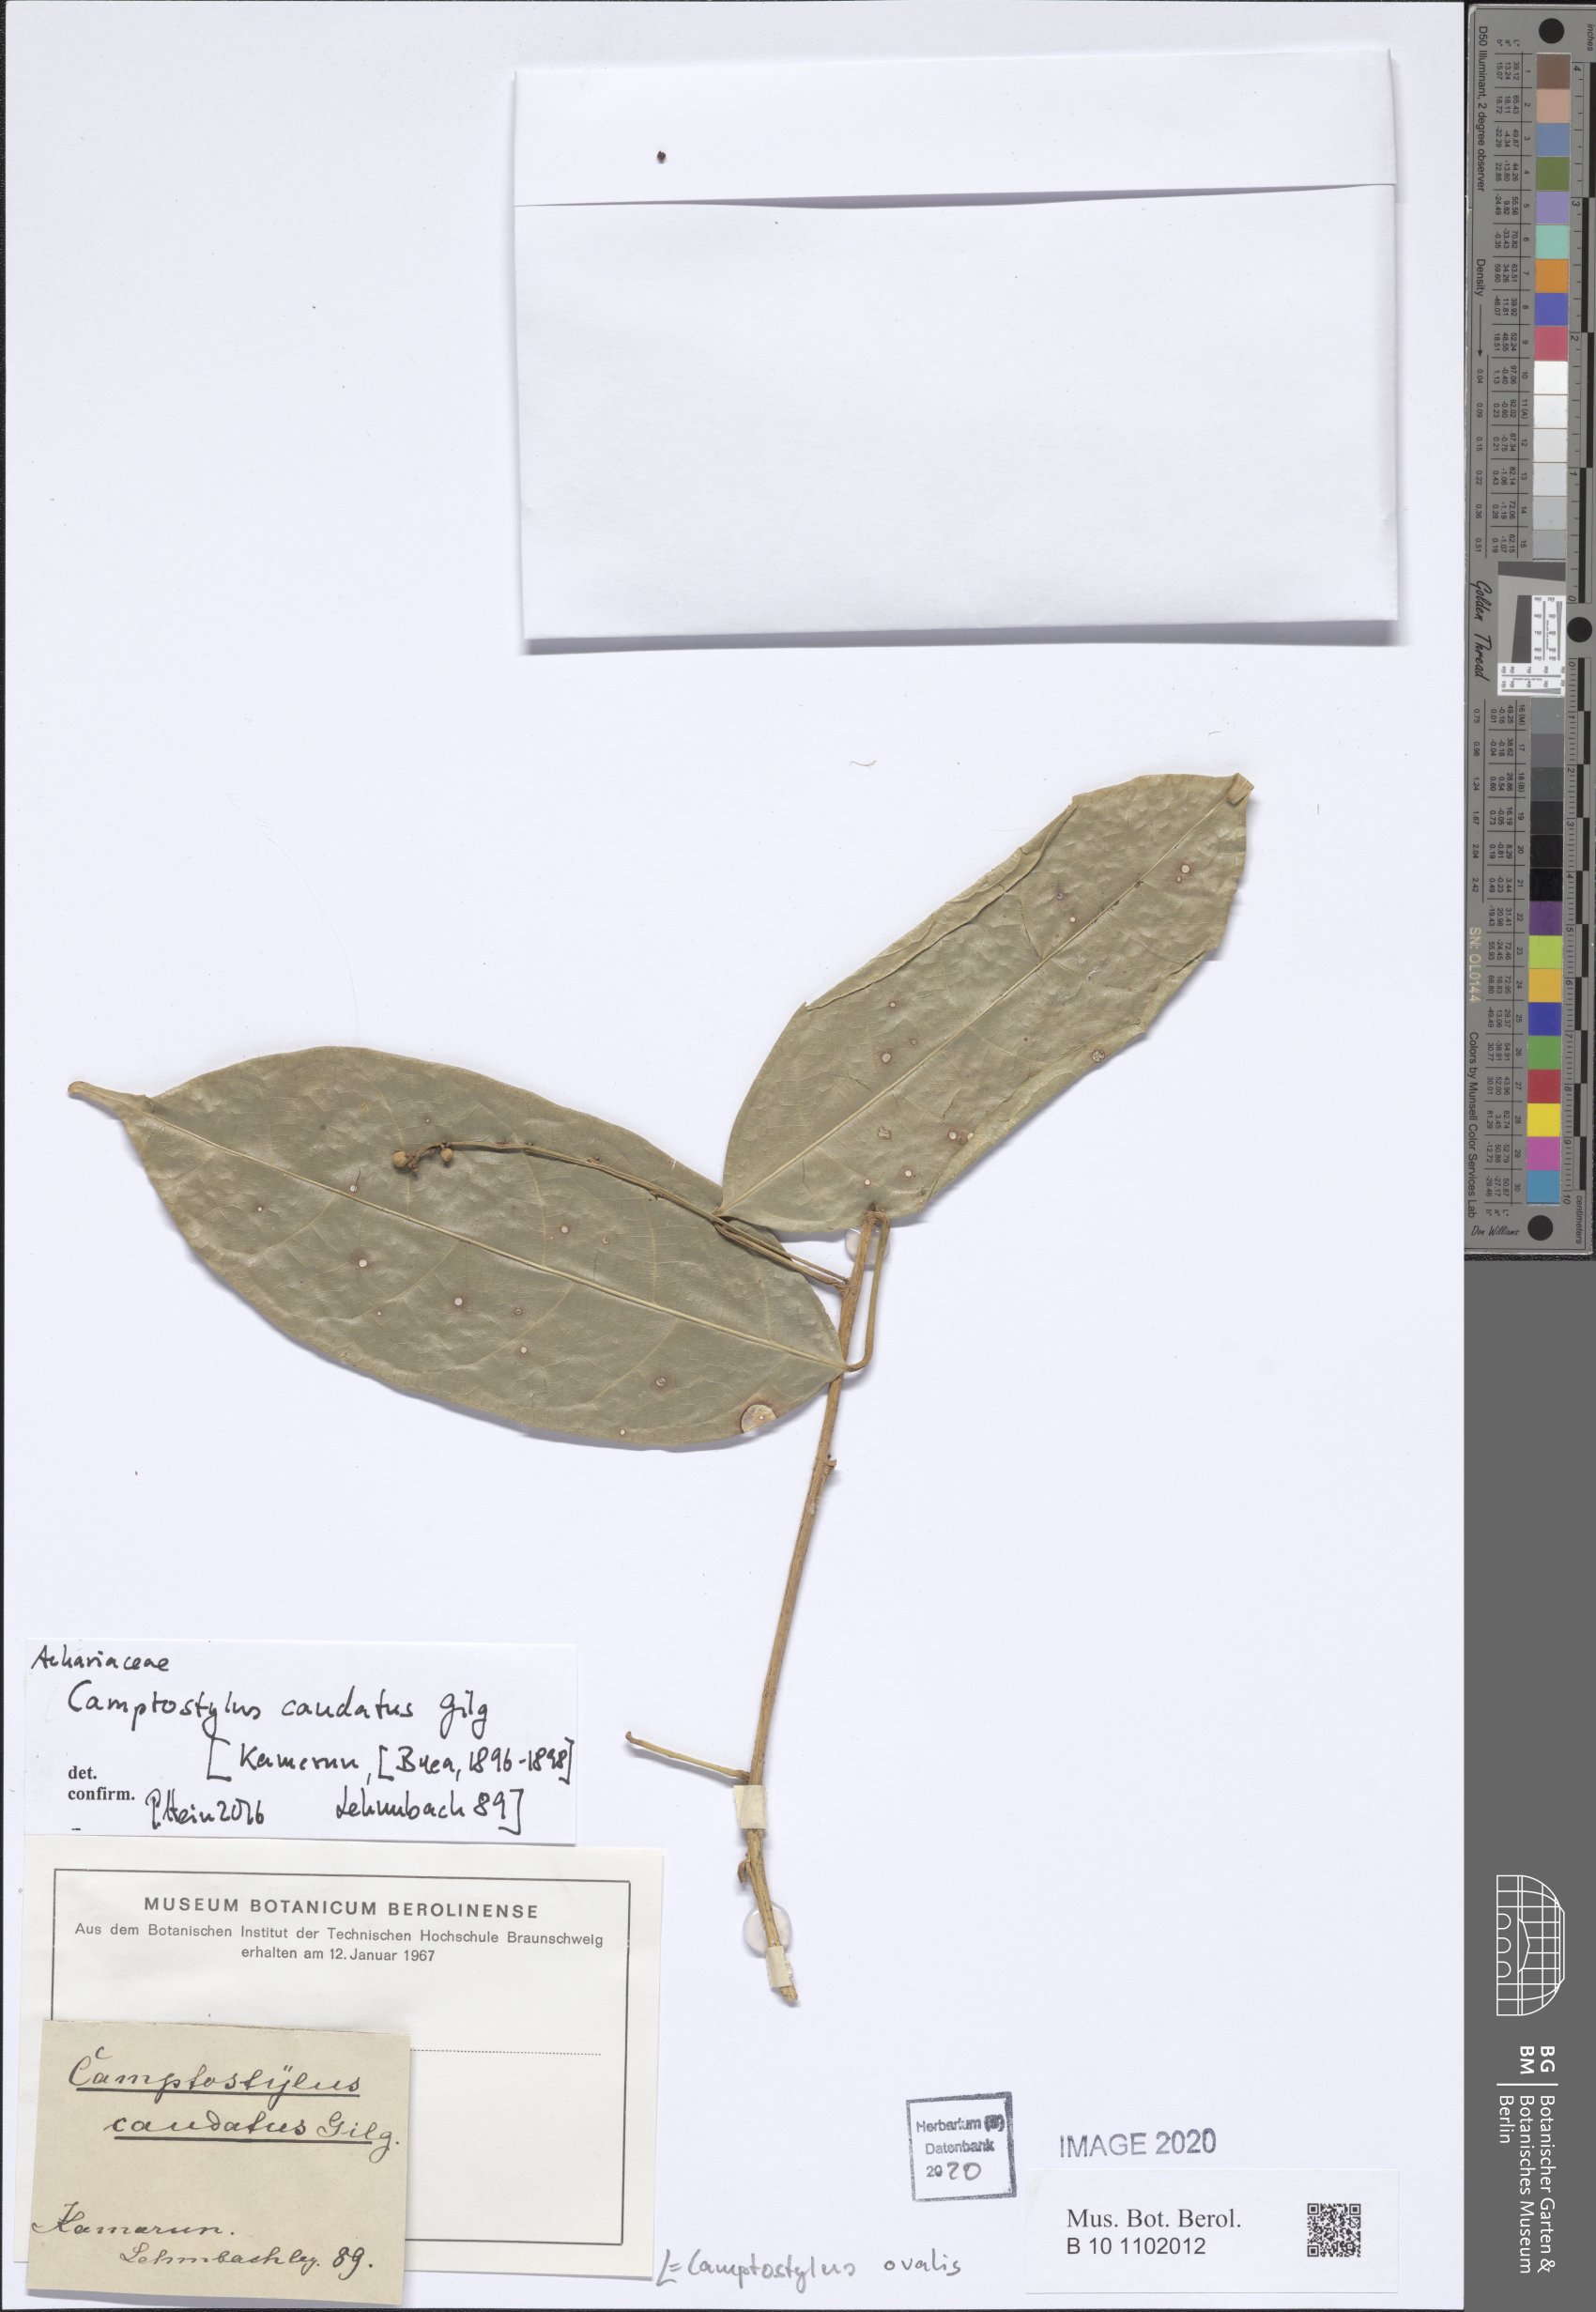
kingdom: Plantae
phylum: Tracheophyta
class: Magnoliopsida
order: Malpighiales
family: Achariaceae
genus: Camptostylus
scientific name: Camptostylus ovalis
